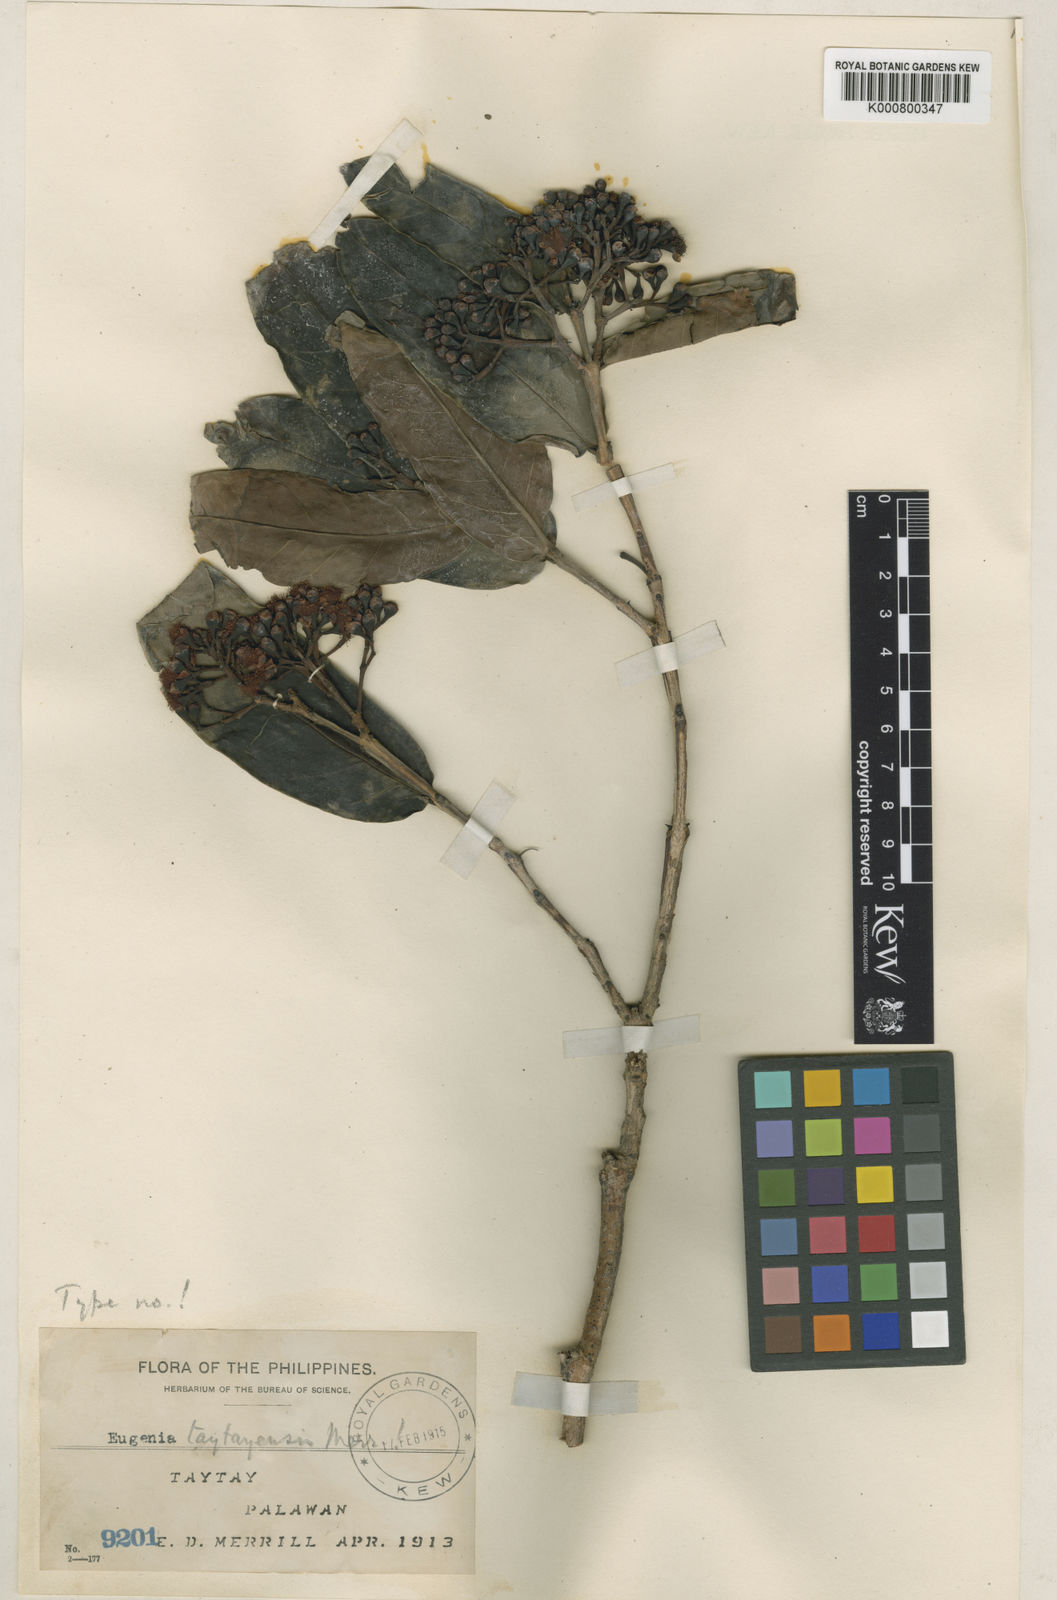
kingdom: Plantae
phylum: Tracheophyta
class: Magnoliopsida
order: Myrtales
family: Myrtaceae
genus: Syzygium
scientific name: Syzygium taytayense
